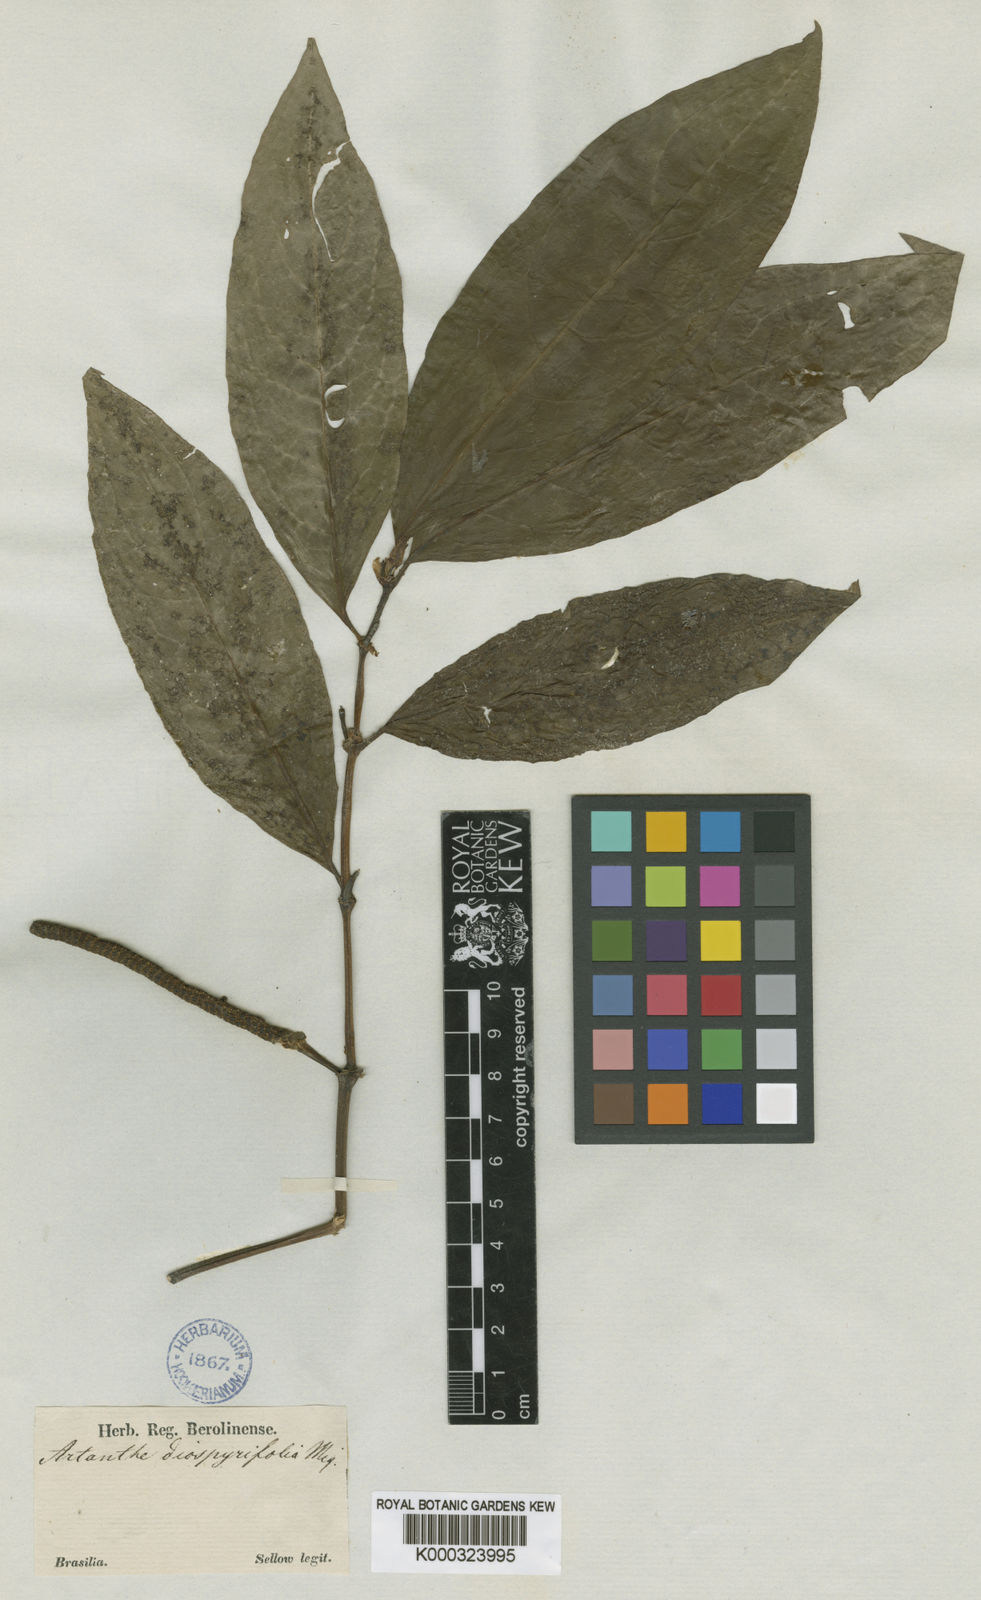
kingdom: Plantae
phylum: Tracheophyta
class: Magnoliopsida
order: Piperales
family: Piperaceae
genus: Piper
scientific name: Piper
